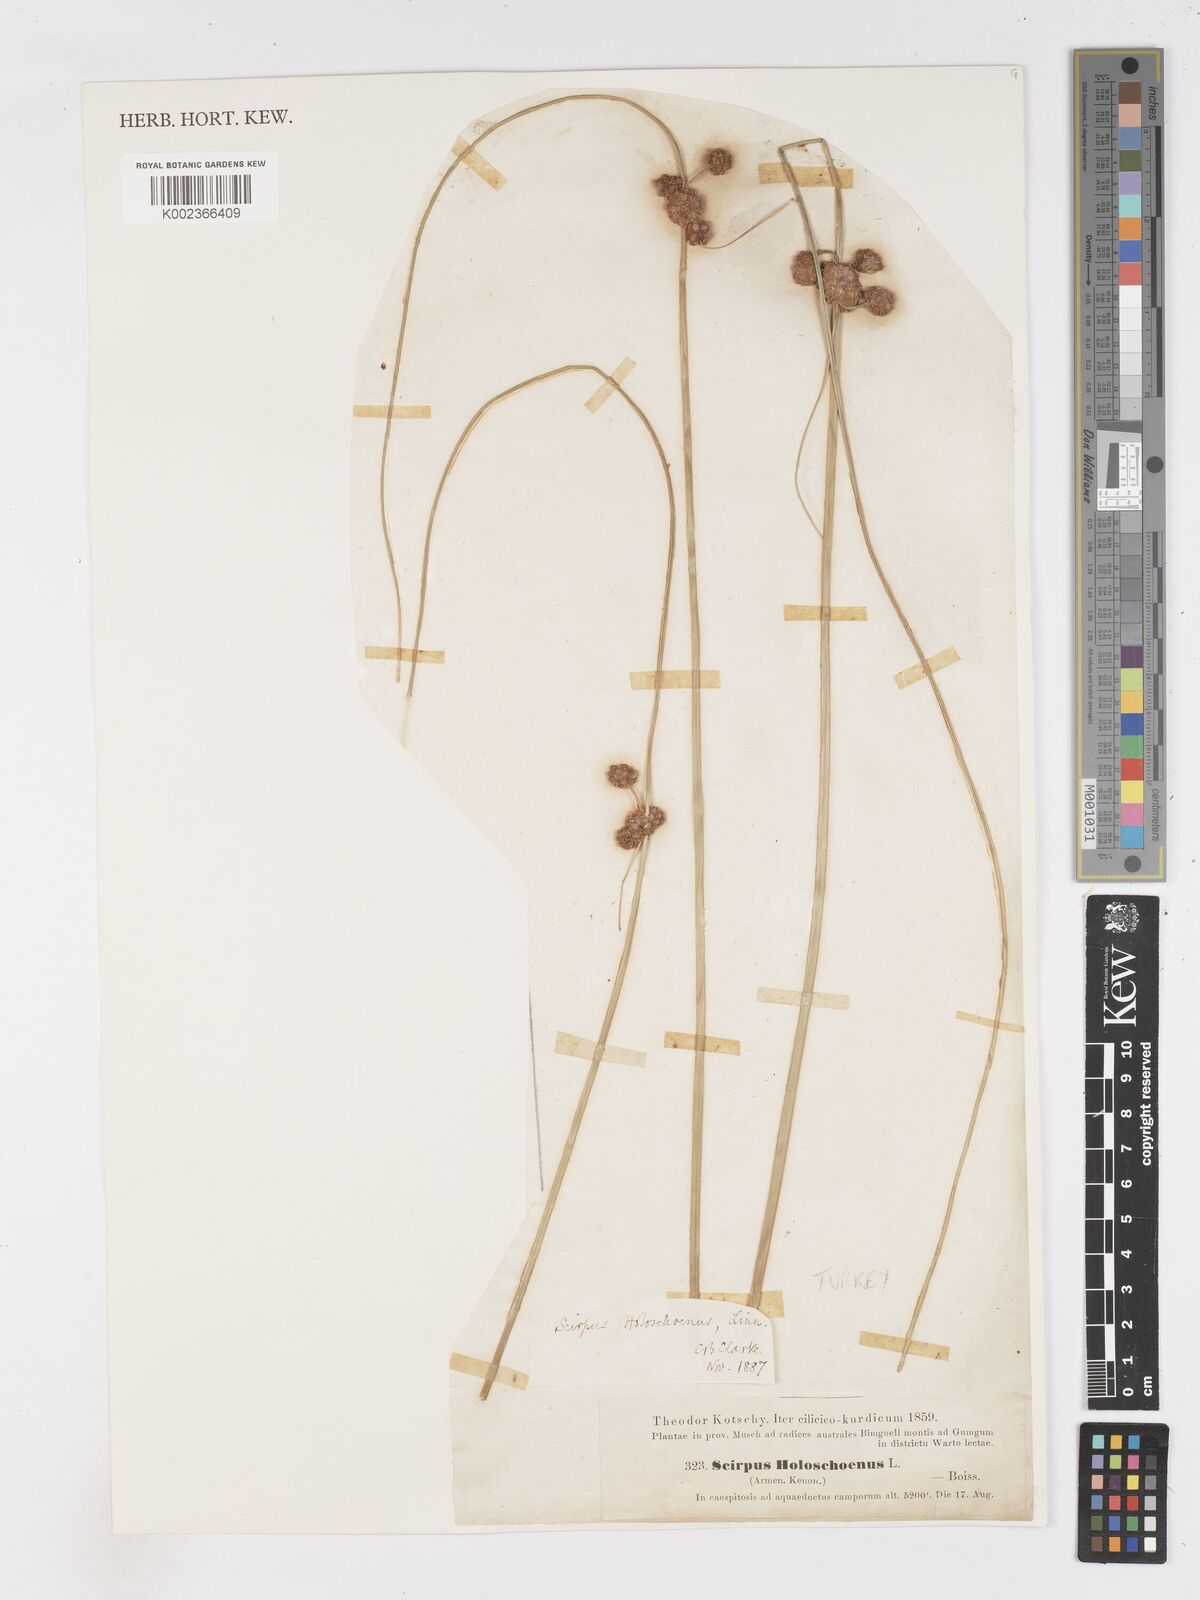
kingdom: Plantae
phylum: Tracheophyta
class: Liliopsida
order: Poales
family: Cyperaceae
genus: Scirpoides
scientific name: Scirpoides holoschoenus
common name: Round-headed club-rush
